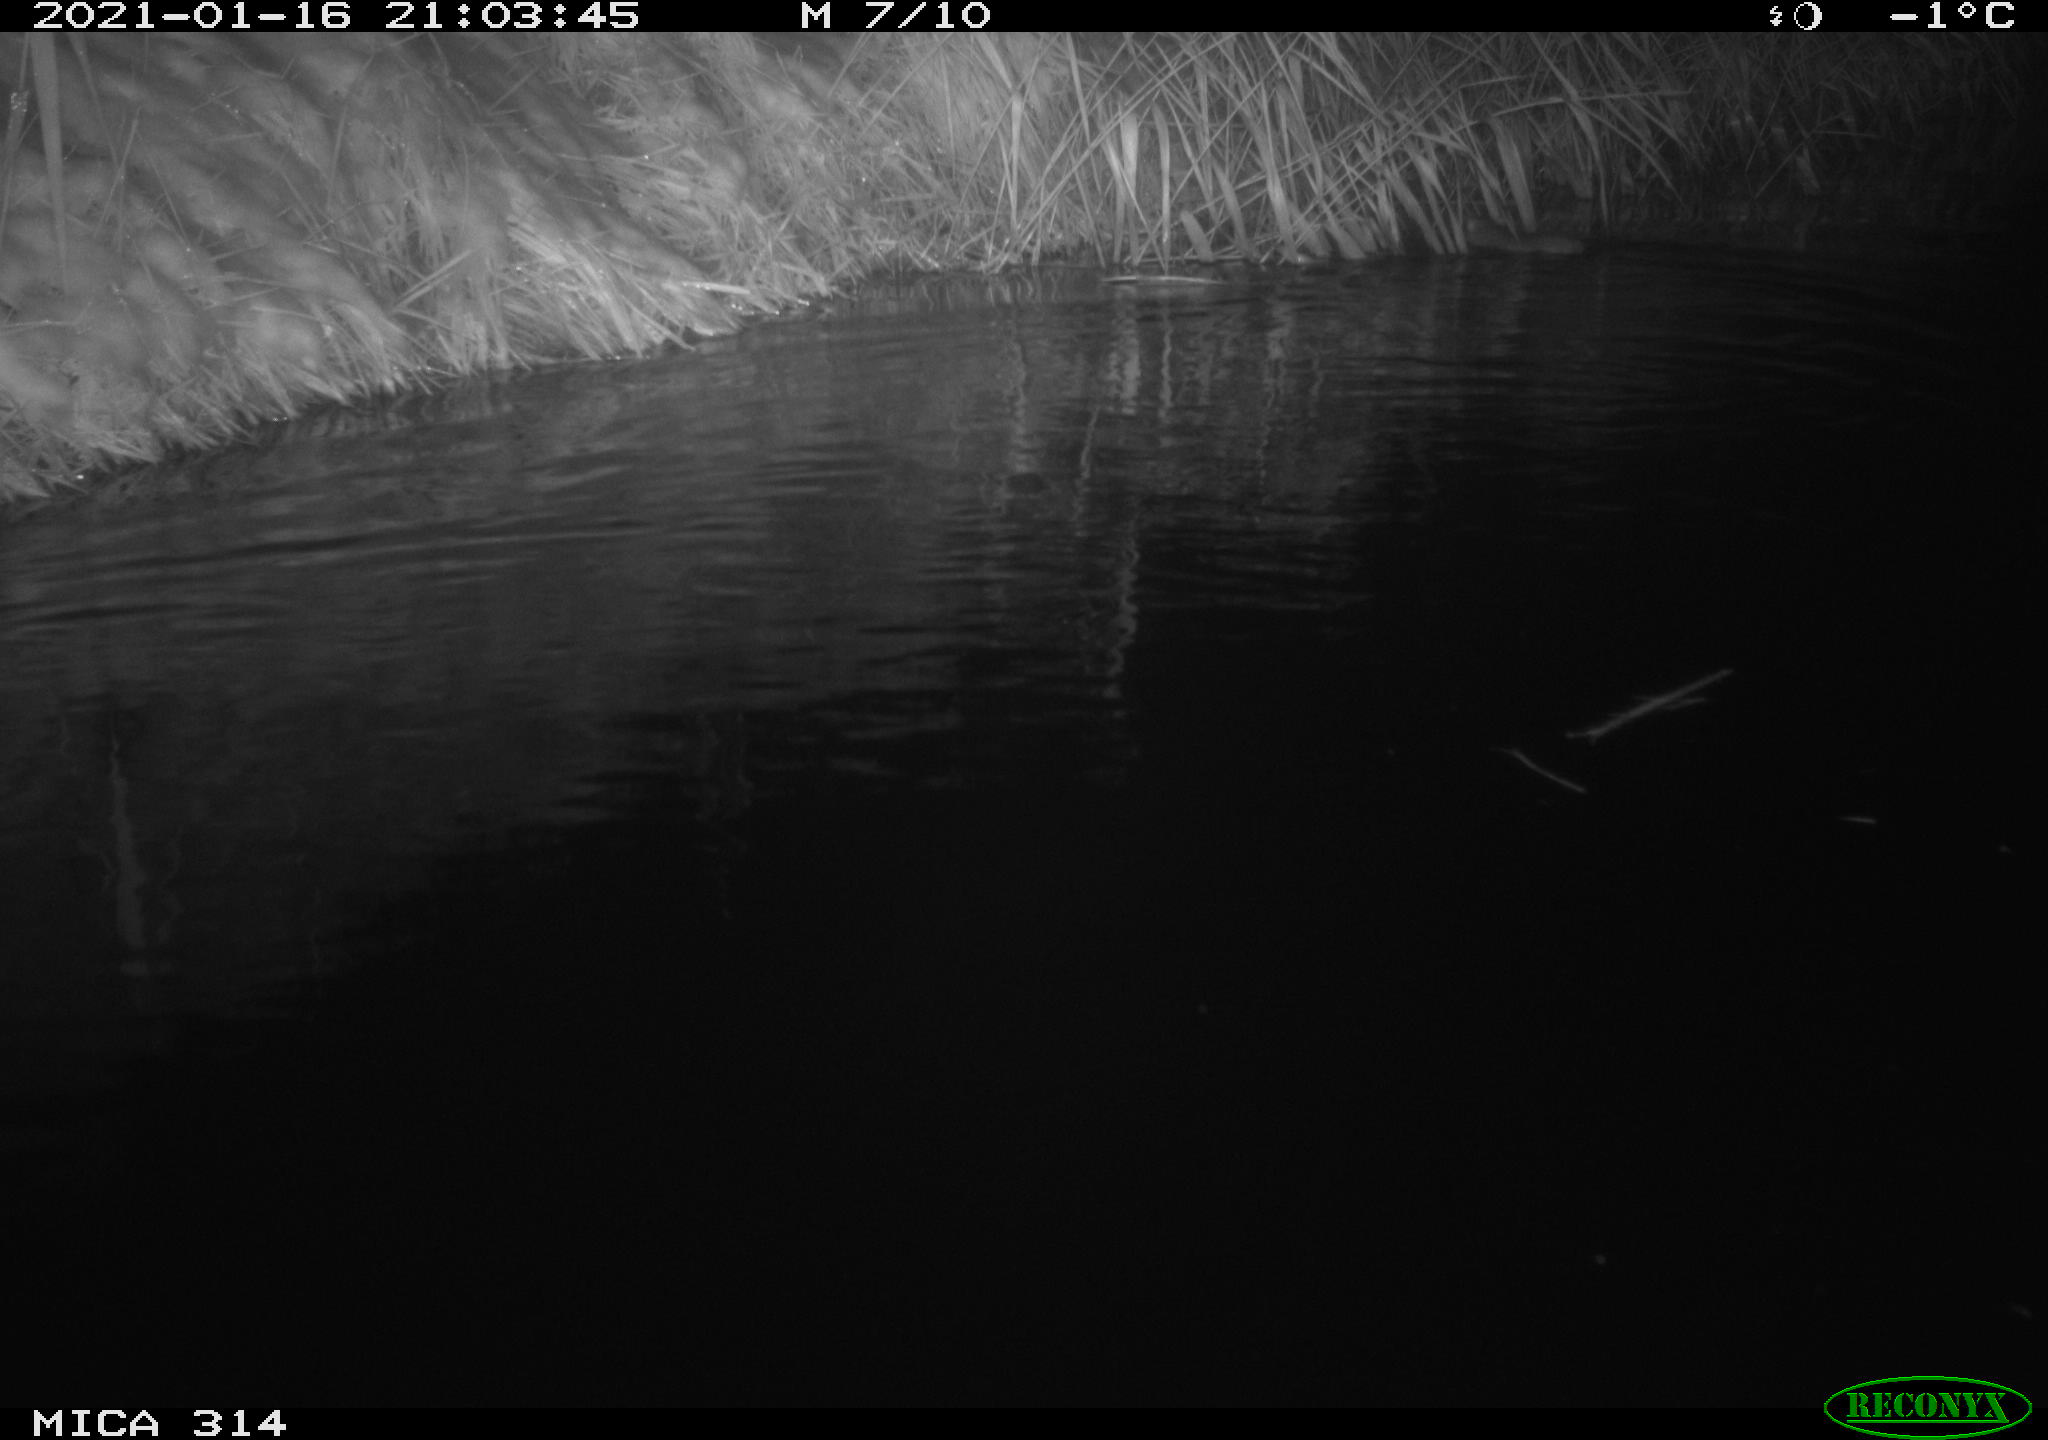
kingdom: Animalia
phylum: Chordata
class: Mammalia
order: Rodentia
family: Muridae
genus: Rattus
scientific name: Rattus norvegicus
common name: Brown rat
